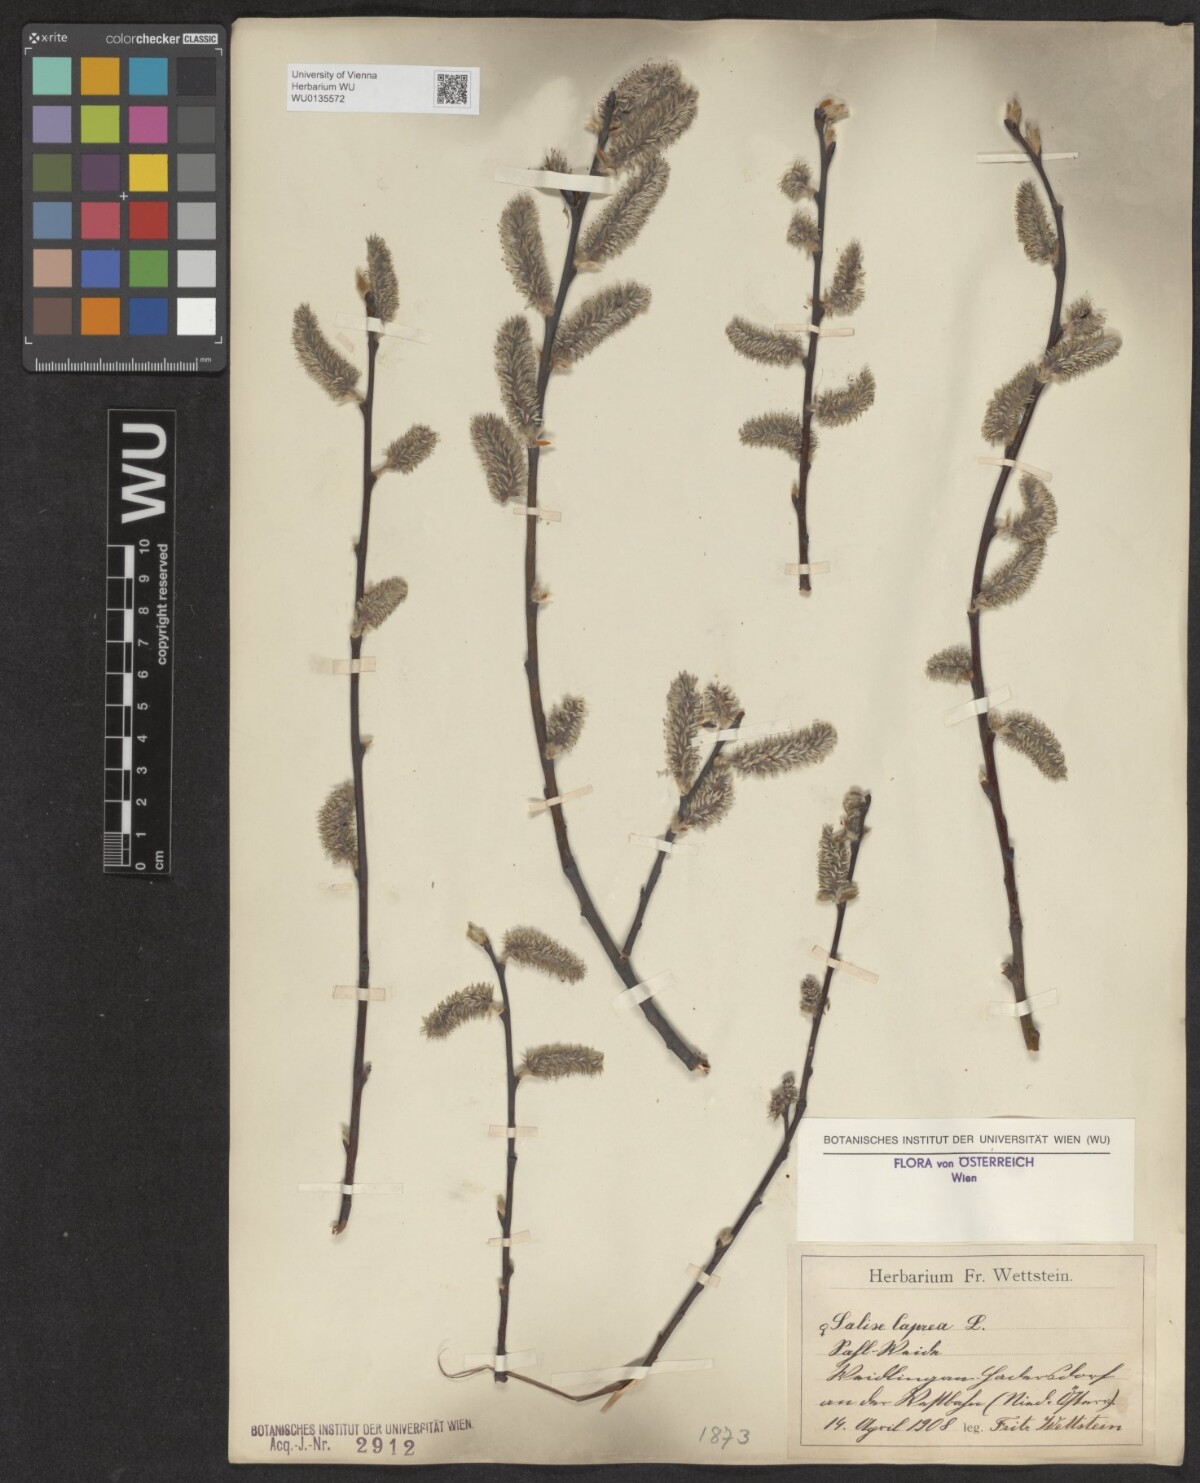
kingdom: Plantae
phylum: Tracheophyta
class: Magnoliopsida
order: Malpighiales
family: Salicaceae
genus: Salix
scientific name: Salix caprea
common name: Goat willow
